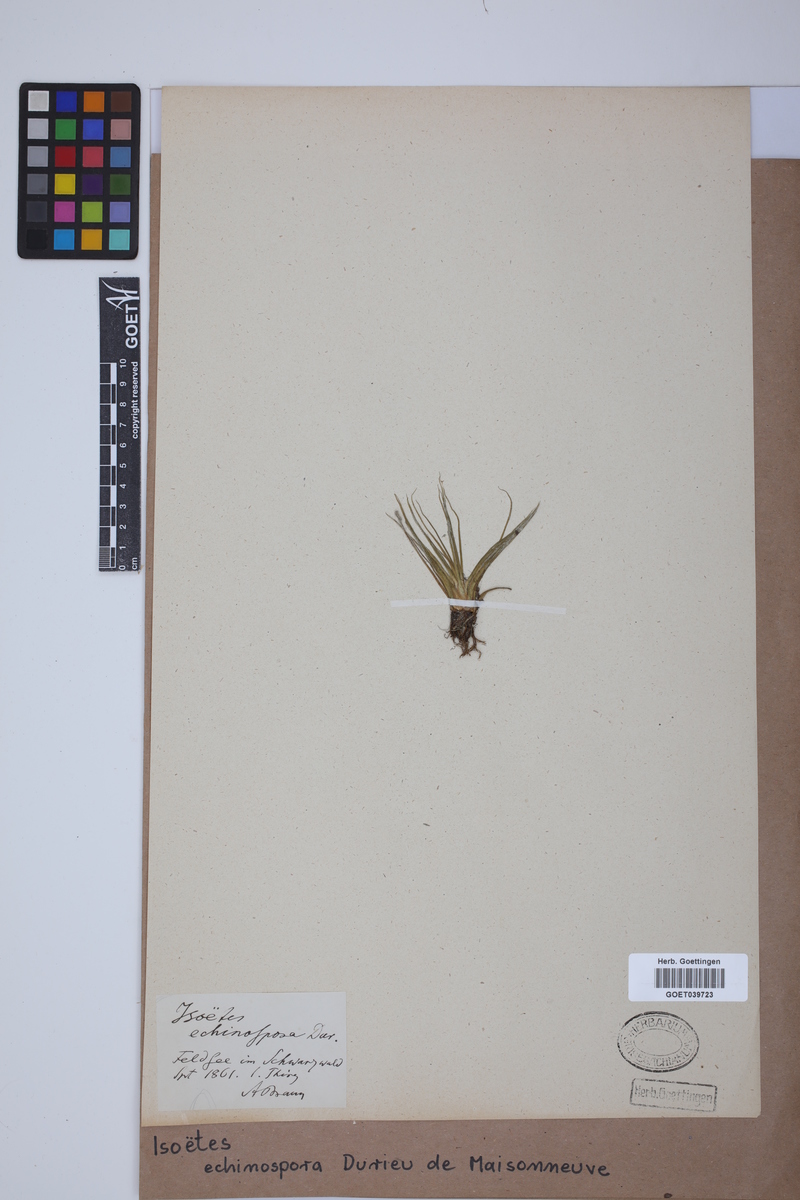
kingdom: Plantae
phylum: Tracheophyta
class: Lycopodiopsida
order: Isoetales
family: Isoetaceae
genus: Isoetes
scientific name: Isoetes echinospora
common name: Spring quillwort
